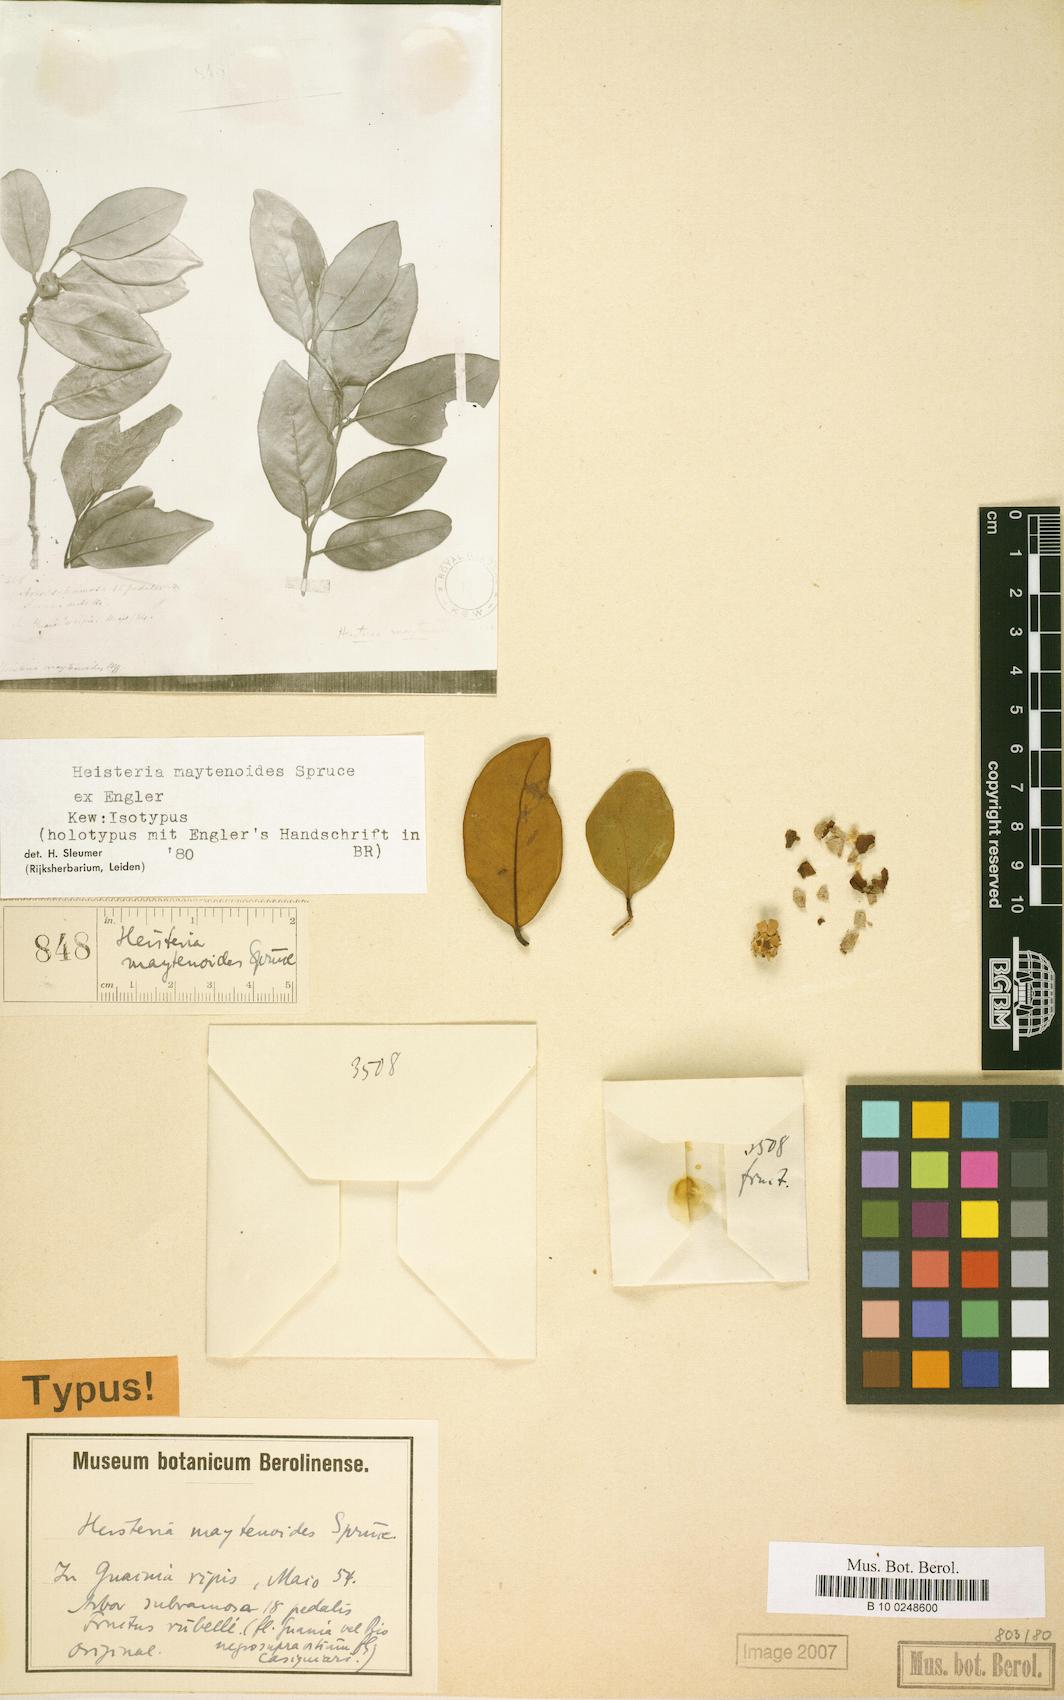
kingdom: Plantae
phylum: Tracheophyta
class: Magnoliopsida
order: Santalales
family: Erythropalaceae
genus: Heisteria
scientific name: Heisteria maytenoides
